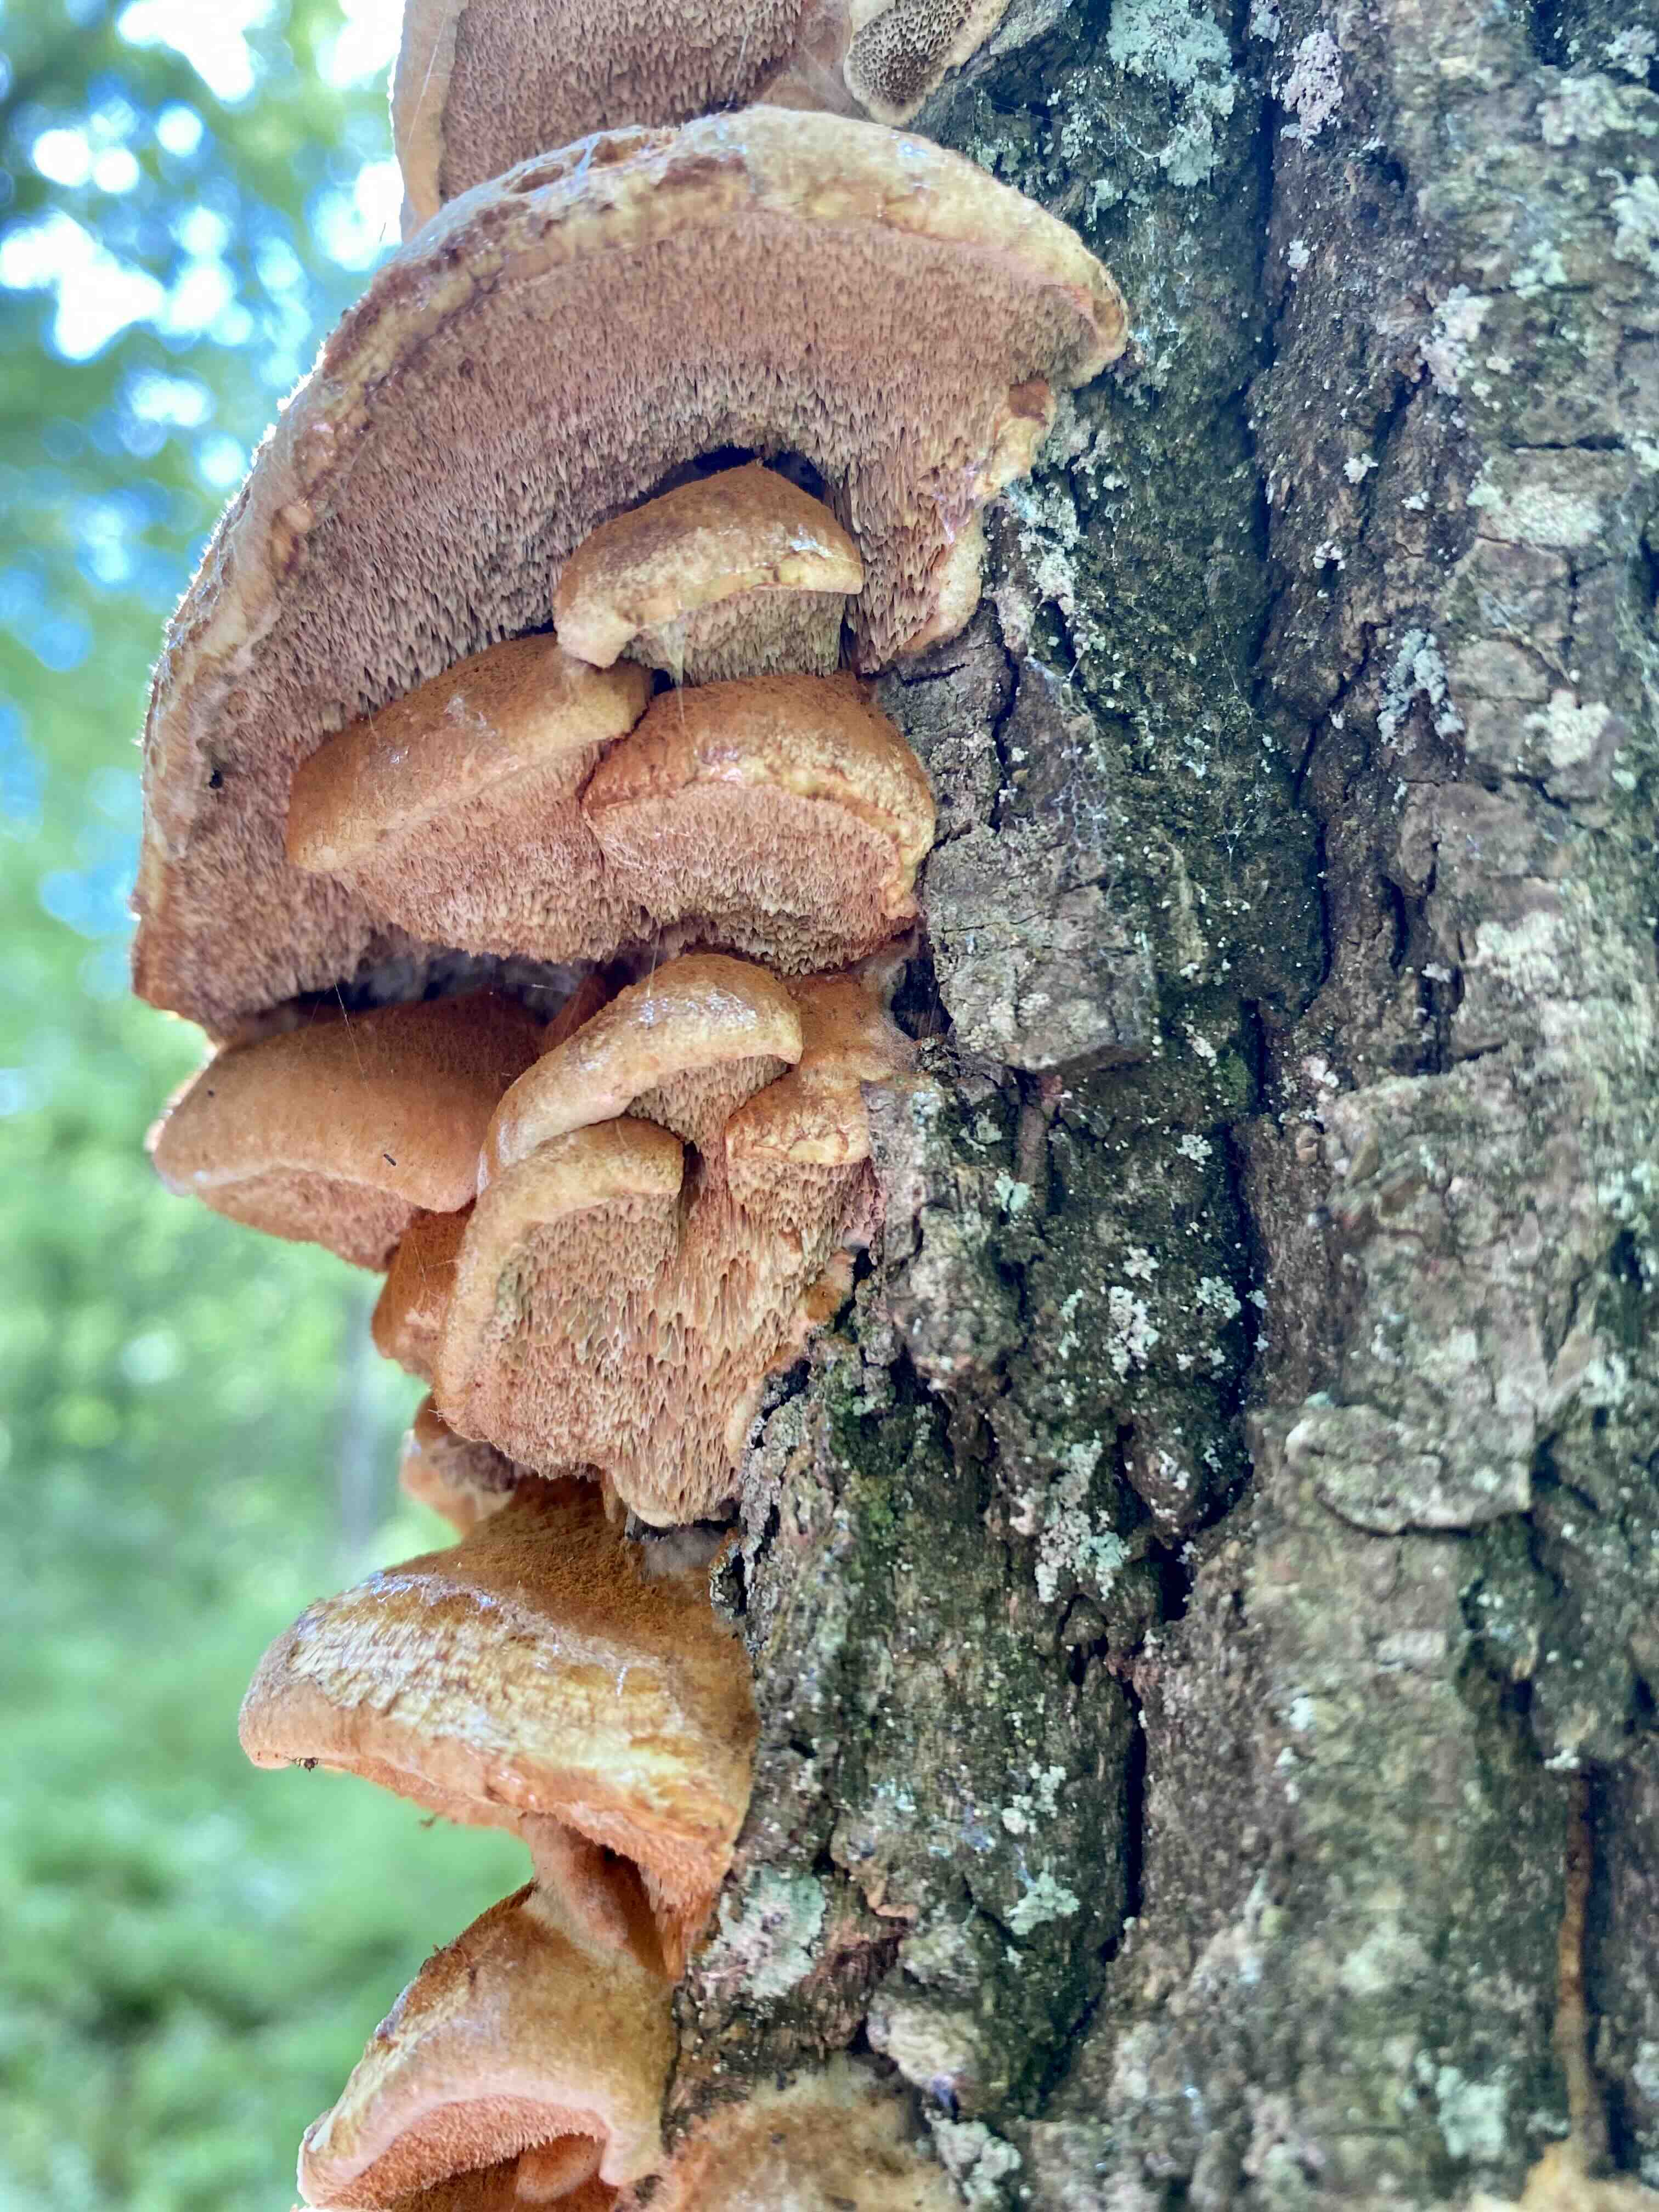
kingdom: Fungi
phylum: Basidiomycota
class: Agaricomycetes
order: Hymenochaetales
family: Hymenochaetaceae
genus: Inocutis
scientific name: Inocutis rheades
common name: ræve-spejlporesvamp
